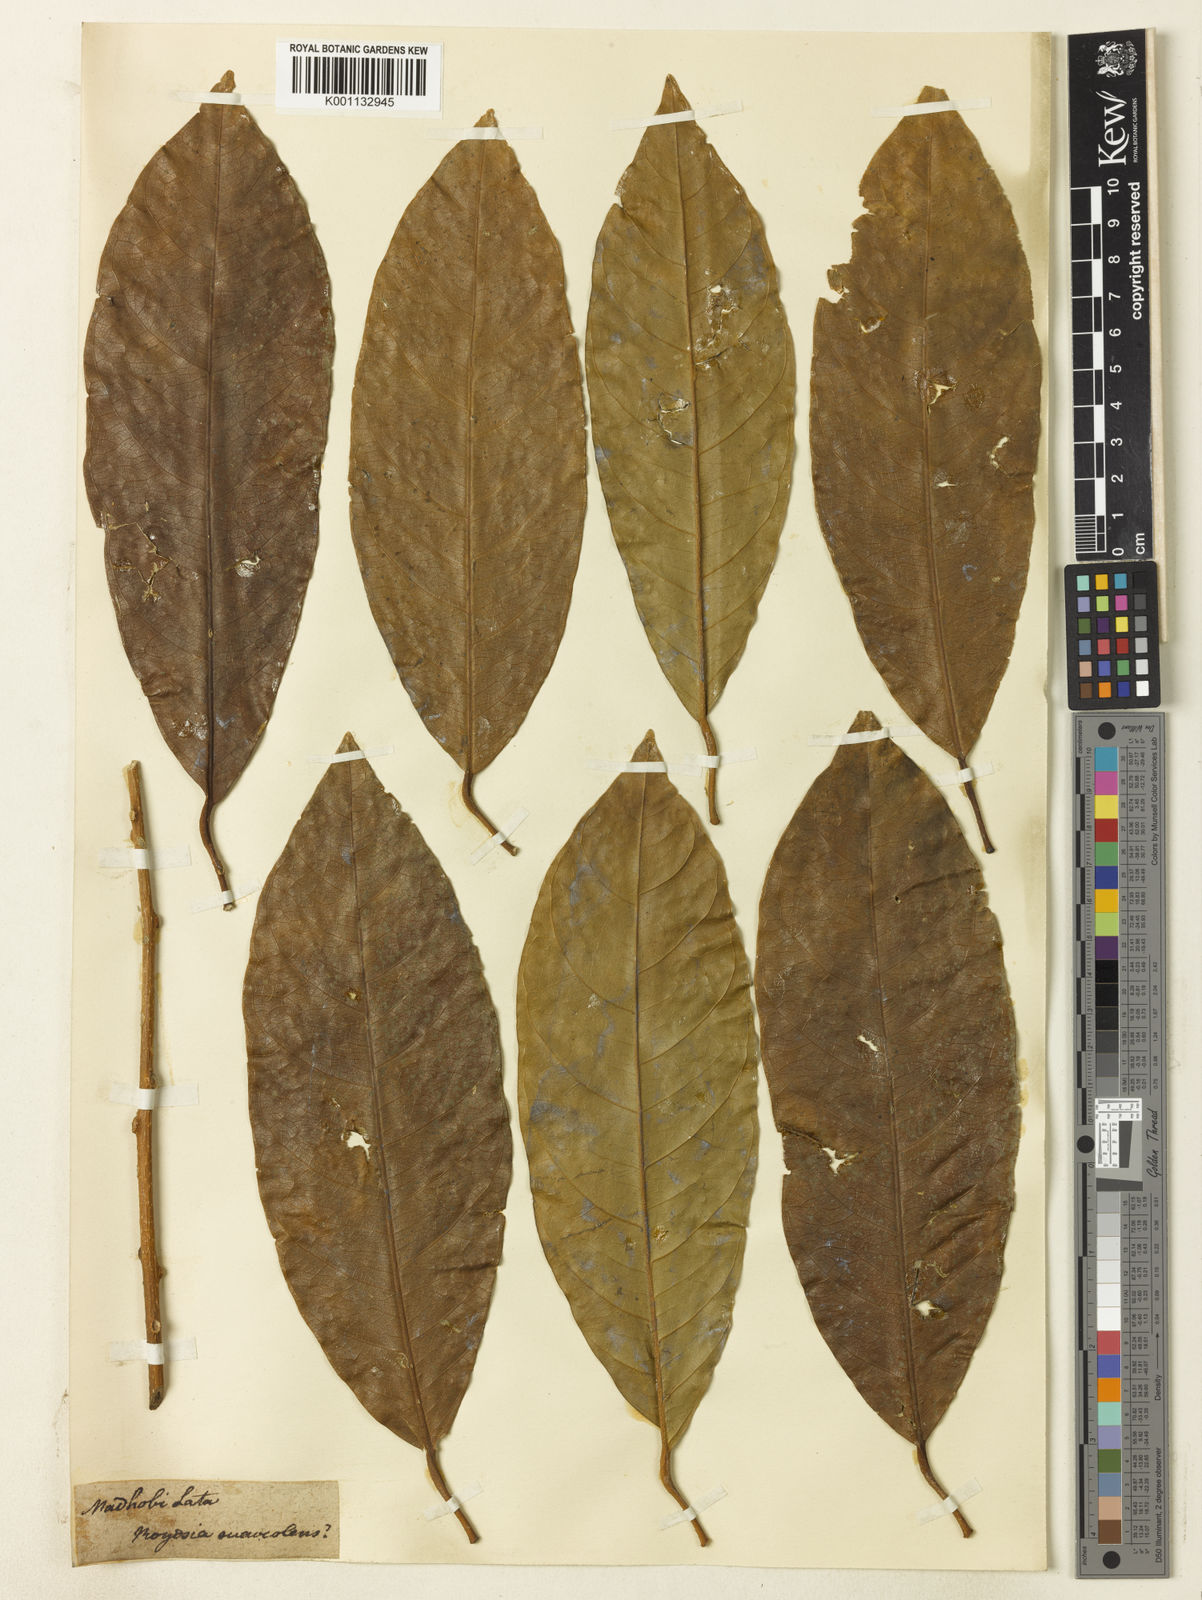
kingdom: Plantae
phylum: Tracheophyta
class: Magnoliopsida
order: Brassicales
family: Stixaceae
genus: Stixis
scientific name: Stixis suaveolens
